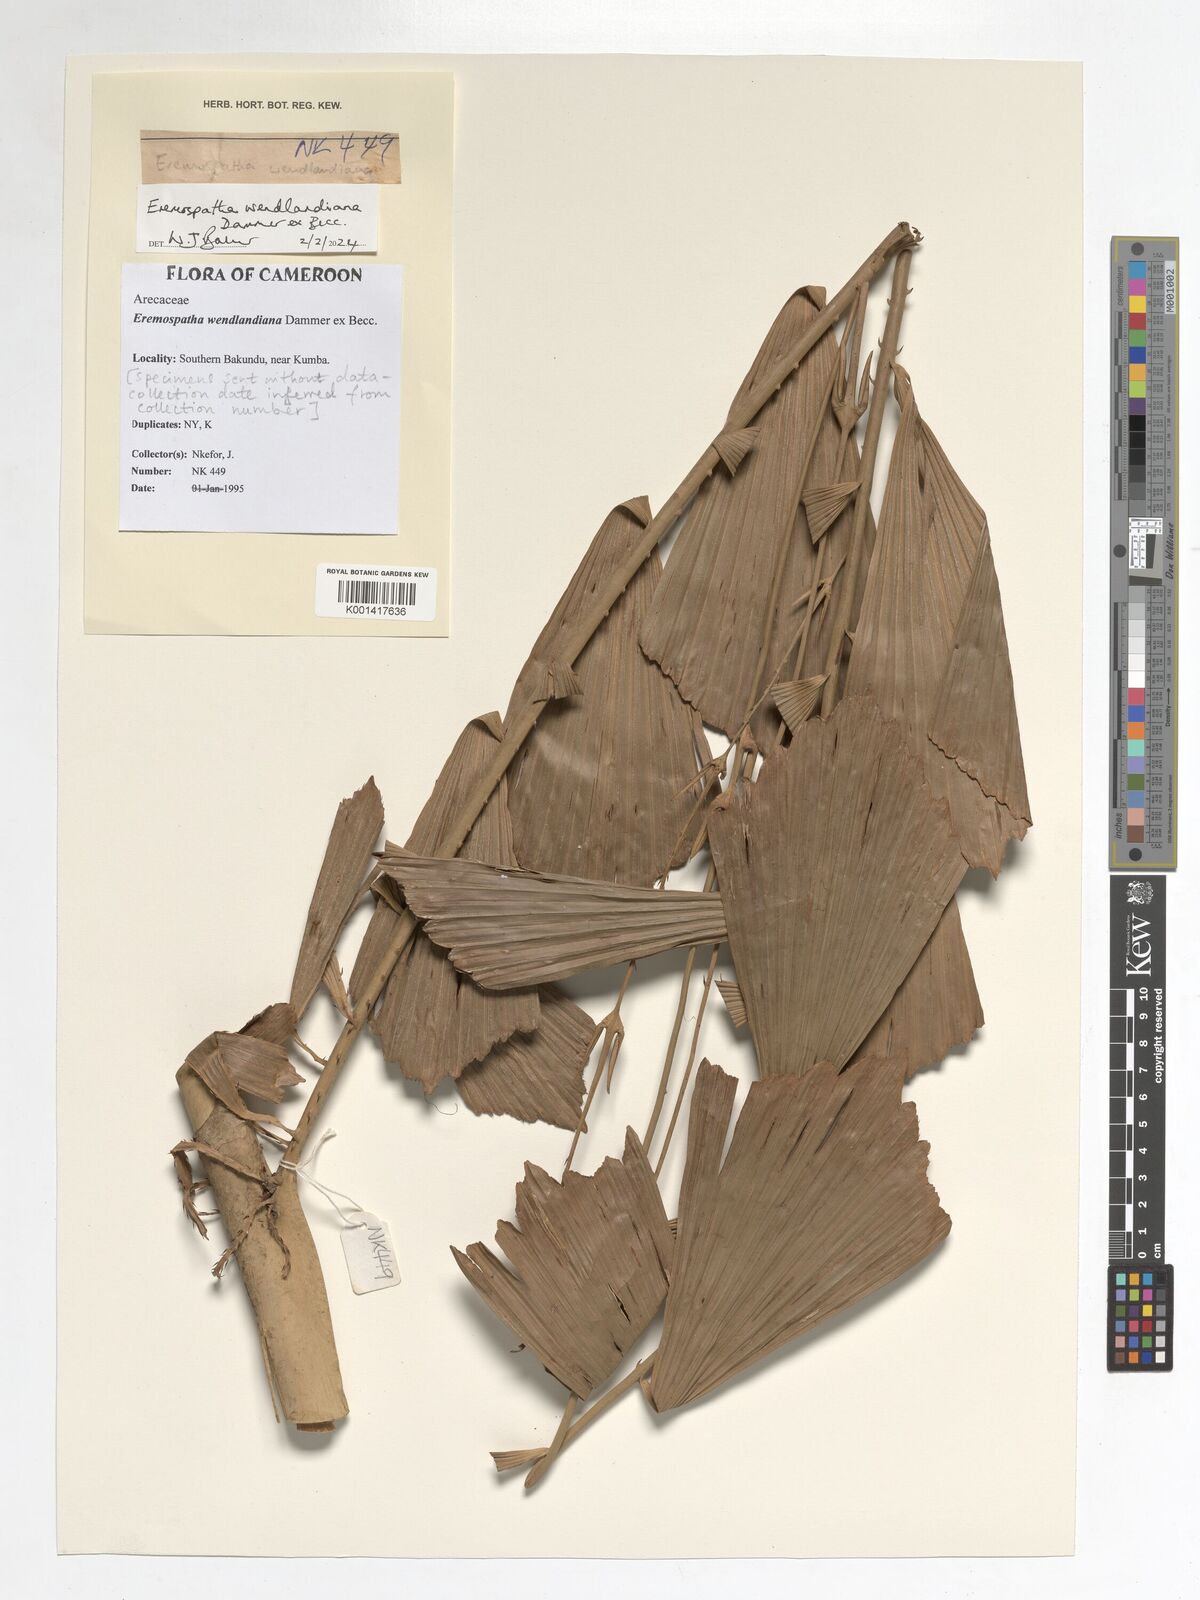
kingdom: Plantae
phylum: Tracheophyta
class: Liliopsida
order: Arecales
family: Arecaceae
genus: Eremospatha
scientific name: Eremospatha wendlandiana
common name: Rattan
